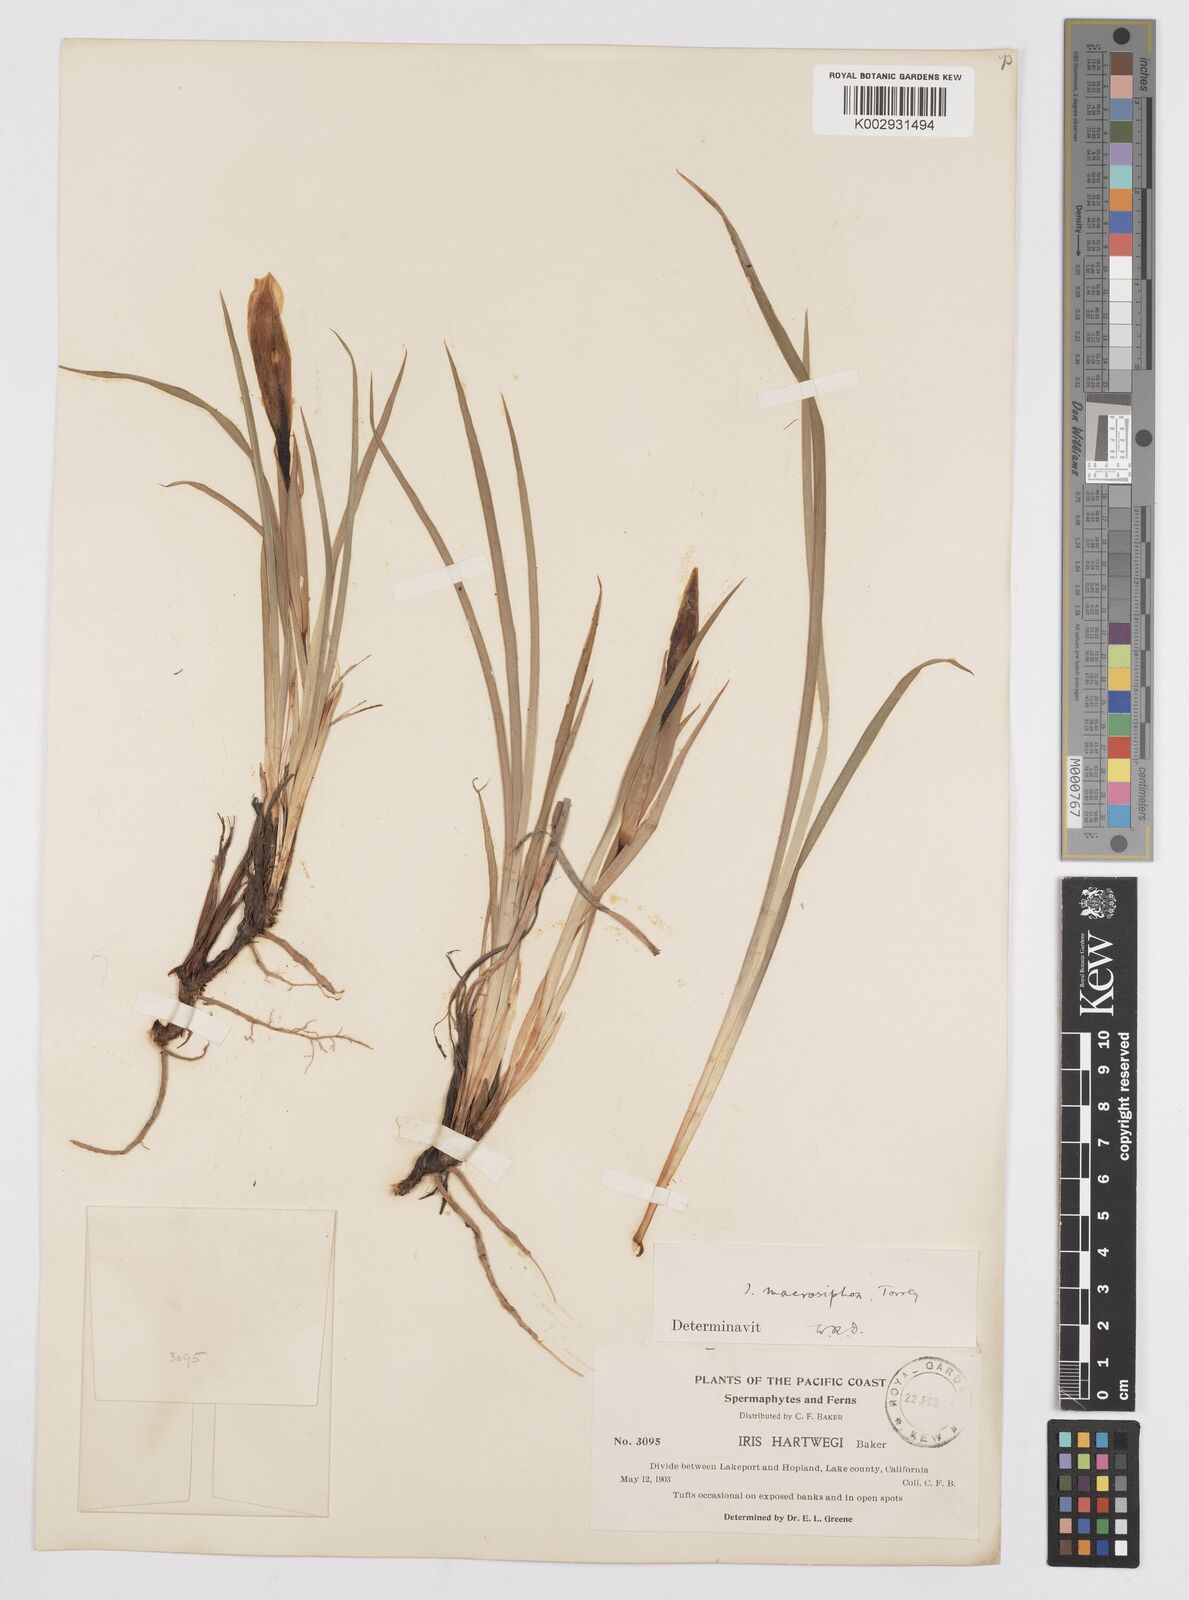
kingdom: Plantae
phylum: Tracheophyta
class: Liliopsida
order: Asparagales
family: Iridaceae
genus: Iris
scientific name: Iris macrosiphon
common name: Ground iris
